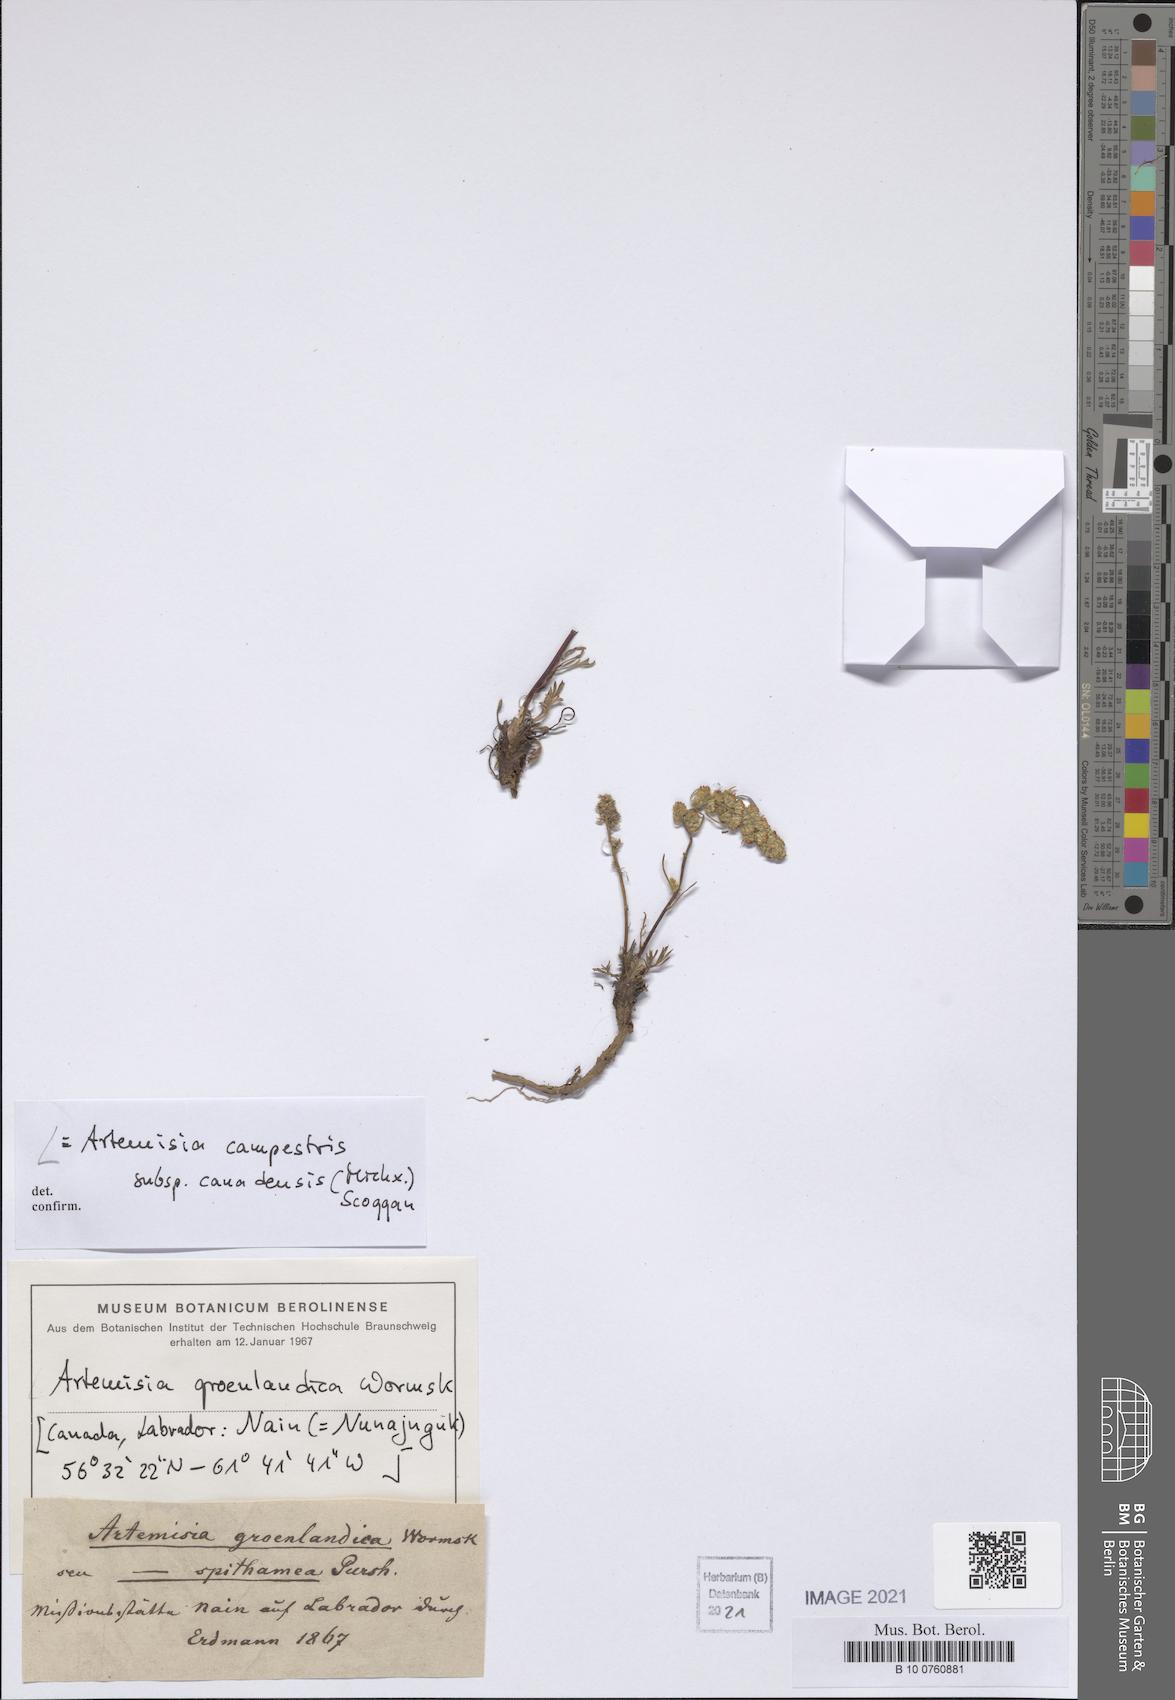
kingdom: Plantae
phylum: Tracheophyta
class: Magnoliopsida
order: Asterales
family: Asteraceae
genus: Artemisia
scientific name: Artemisia campestris
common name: Field wormwood
